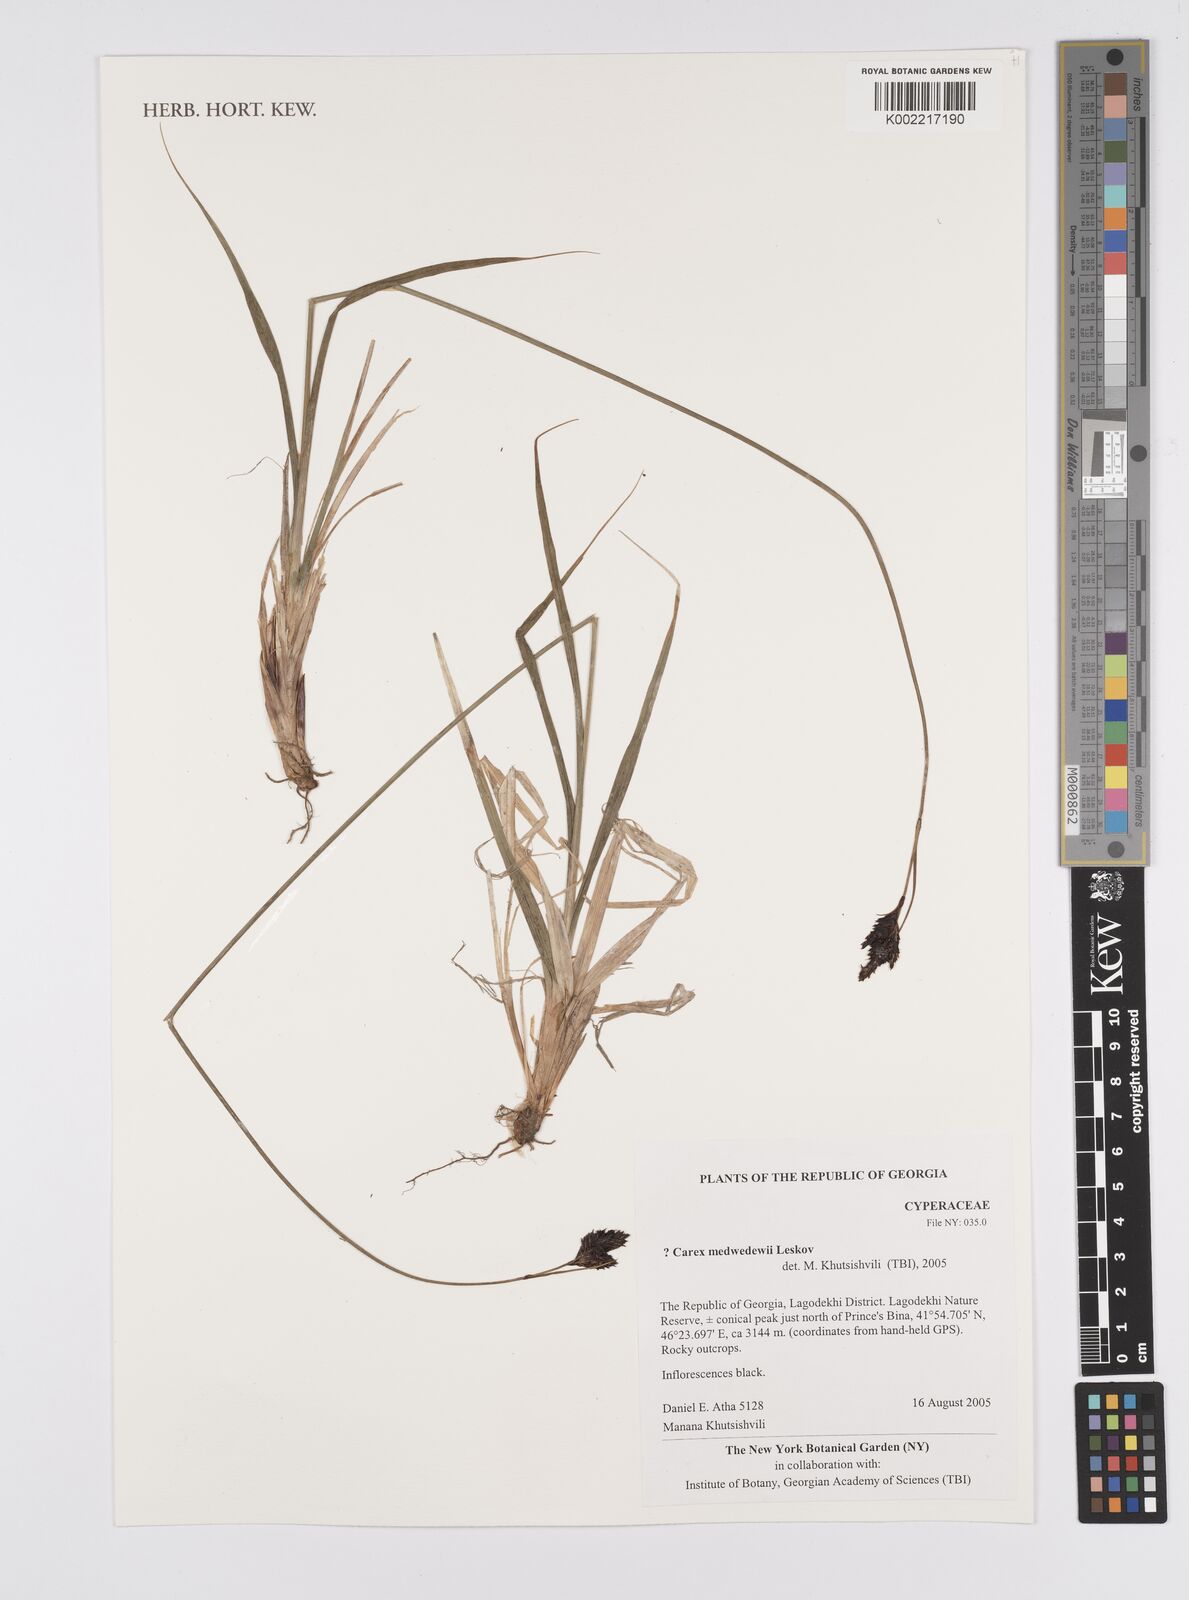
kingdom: Plantae
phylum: Tracheophyta
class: Liliopsida
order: Poales
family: Cyperaceae
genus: Carex
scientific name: Carex aterrima
